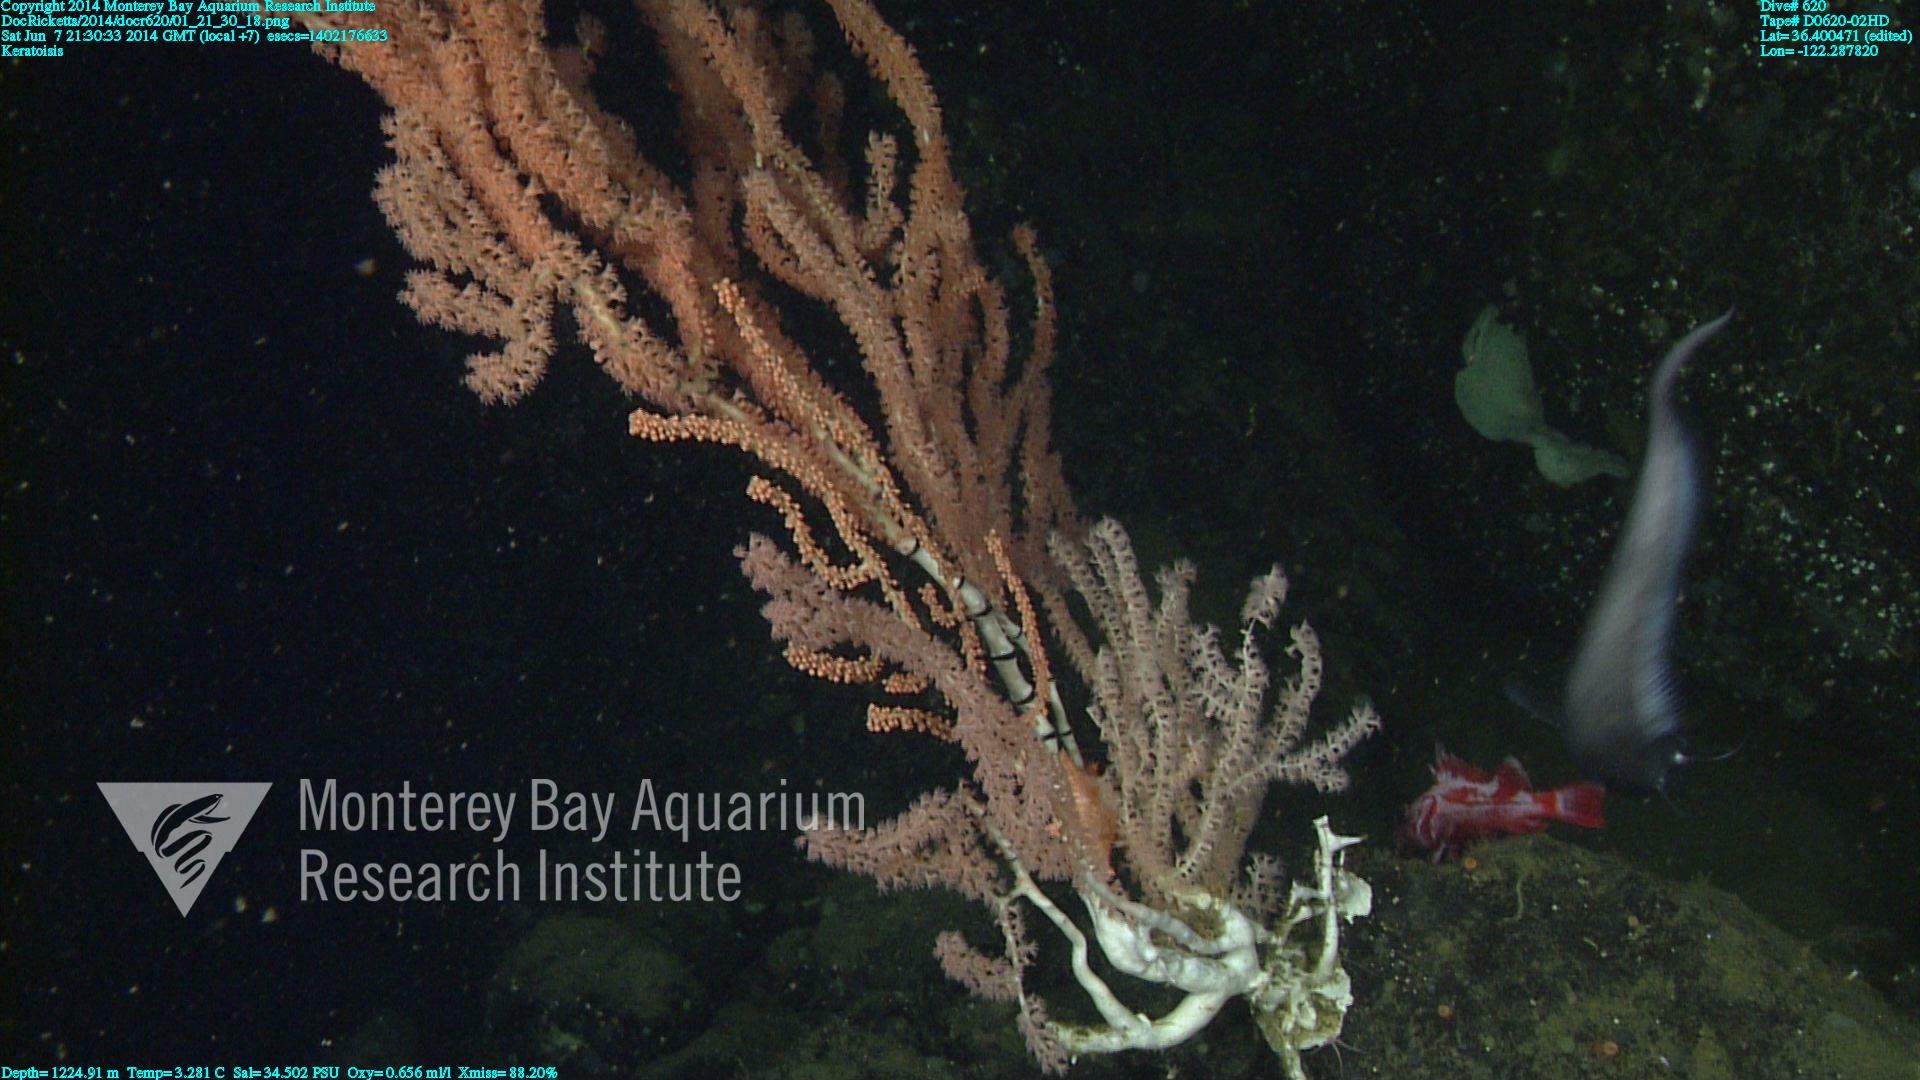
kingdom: Animalia
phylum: Cnidaria
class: Anthozoa
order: Scleralcyonacea
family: Keratoisididae
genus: Keratoisis
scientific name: Keratoisis
